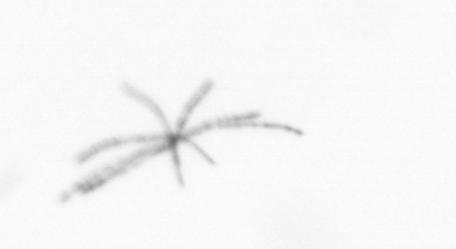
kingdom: Chromista
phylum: Ochrophyta
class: Bacillariophyceae
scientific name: Bacillariophyceae
